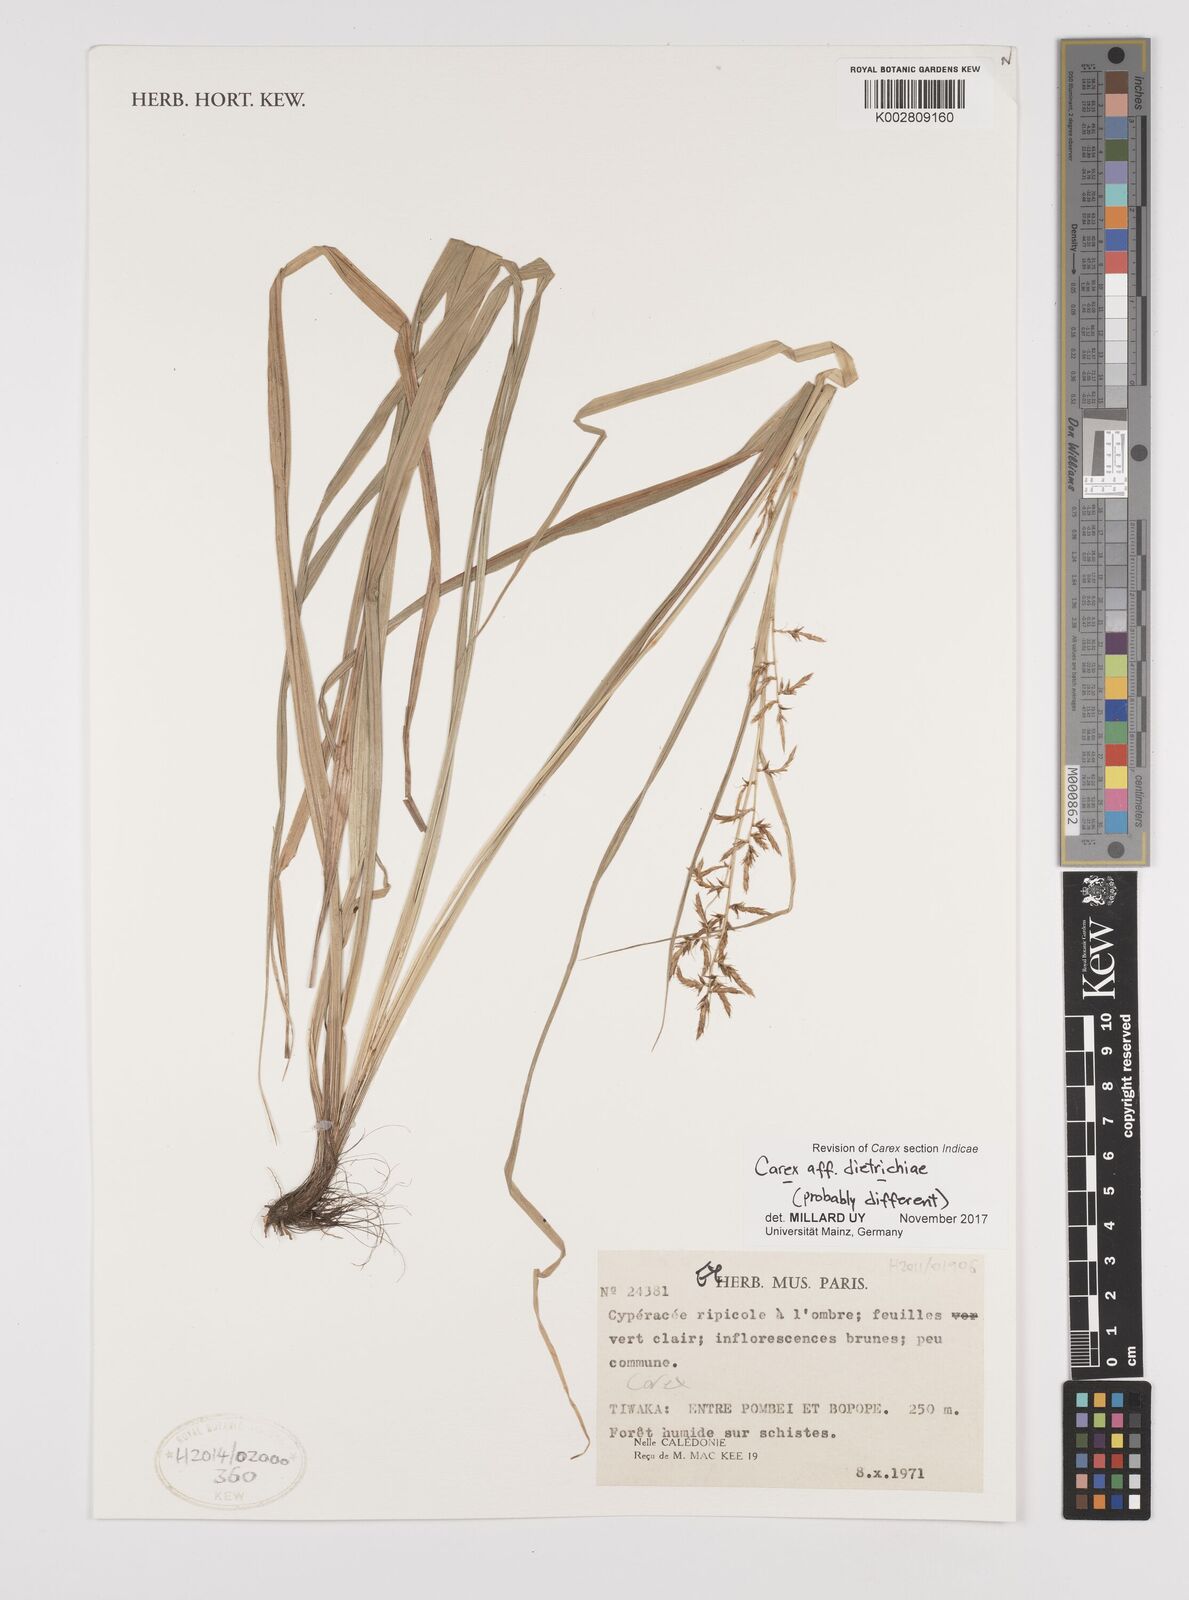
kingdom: Plantae
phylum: Tracheophyta
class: Liliopsida
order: Poales
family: Cyperaceae
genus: Carex
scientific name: Carex
